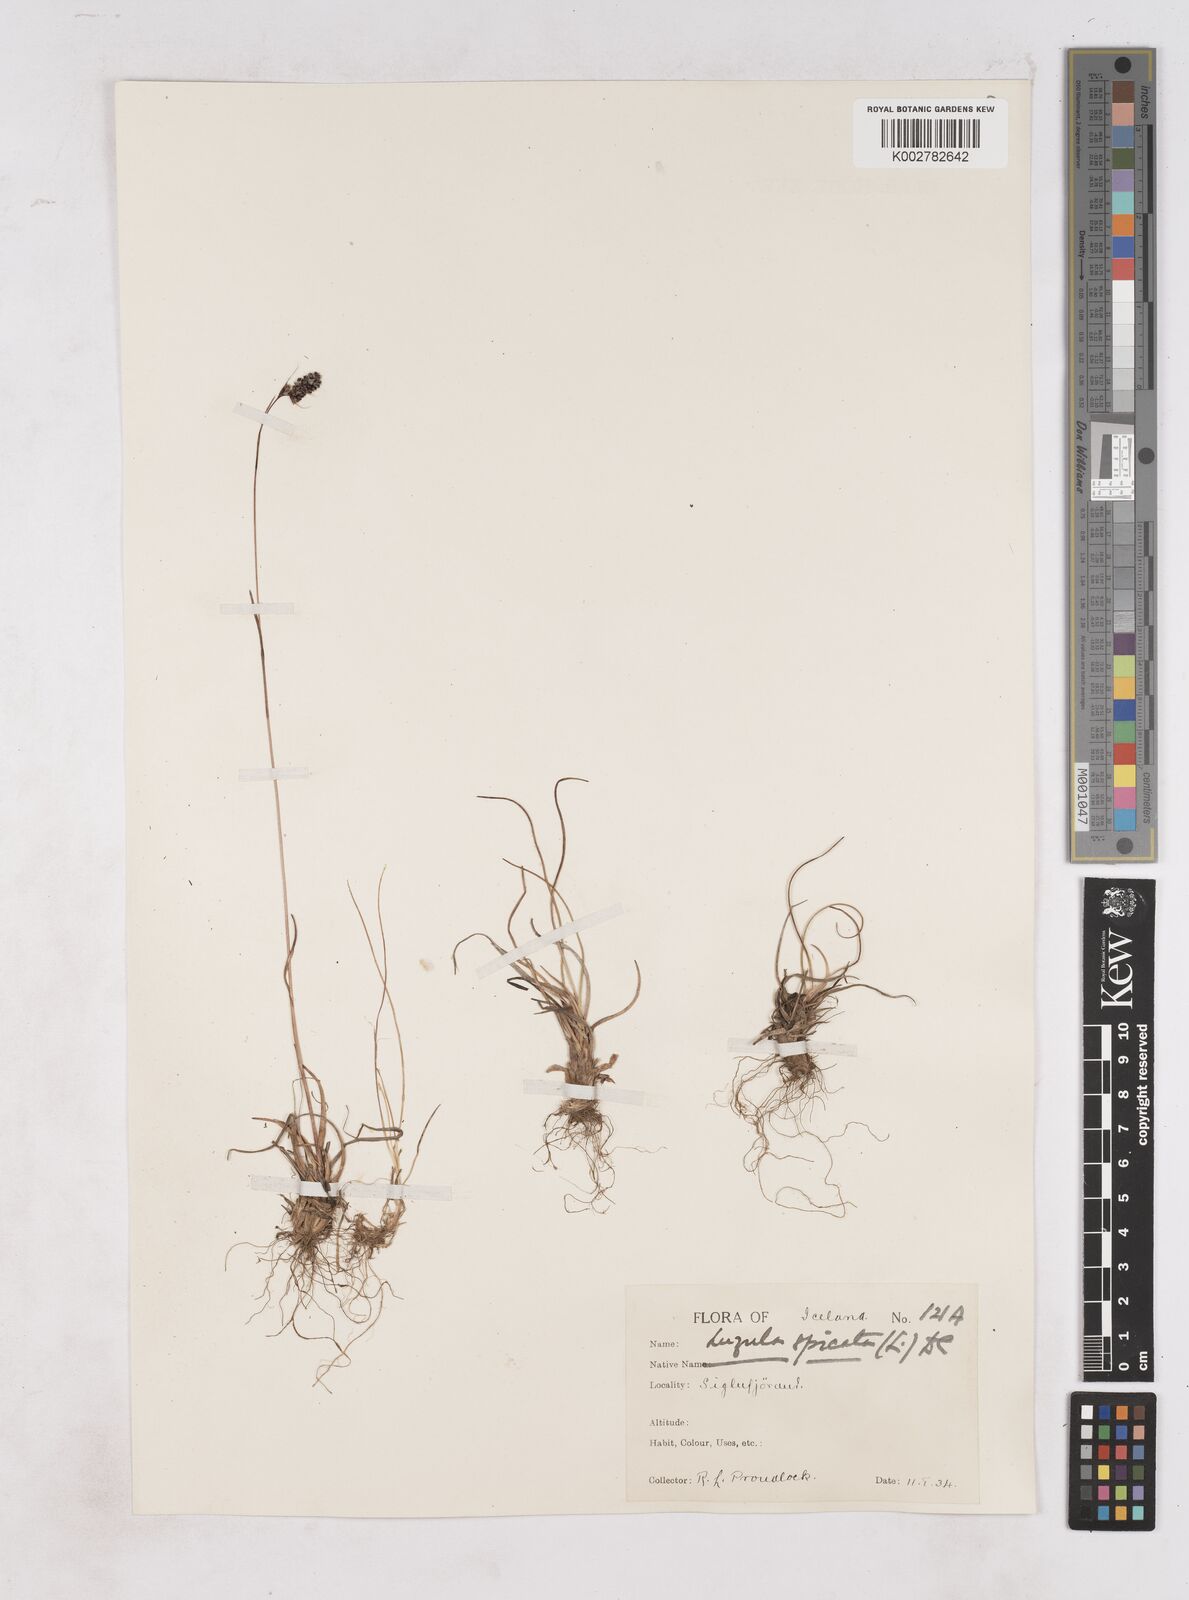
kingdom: Plantae
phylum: Tracheophyta
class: Liliopsida
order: Poales
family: Juncaceae
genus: Luzula
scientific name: Luzula spicata
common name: Spiked wood-rush
